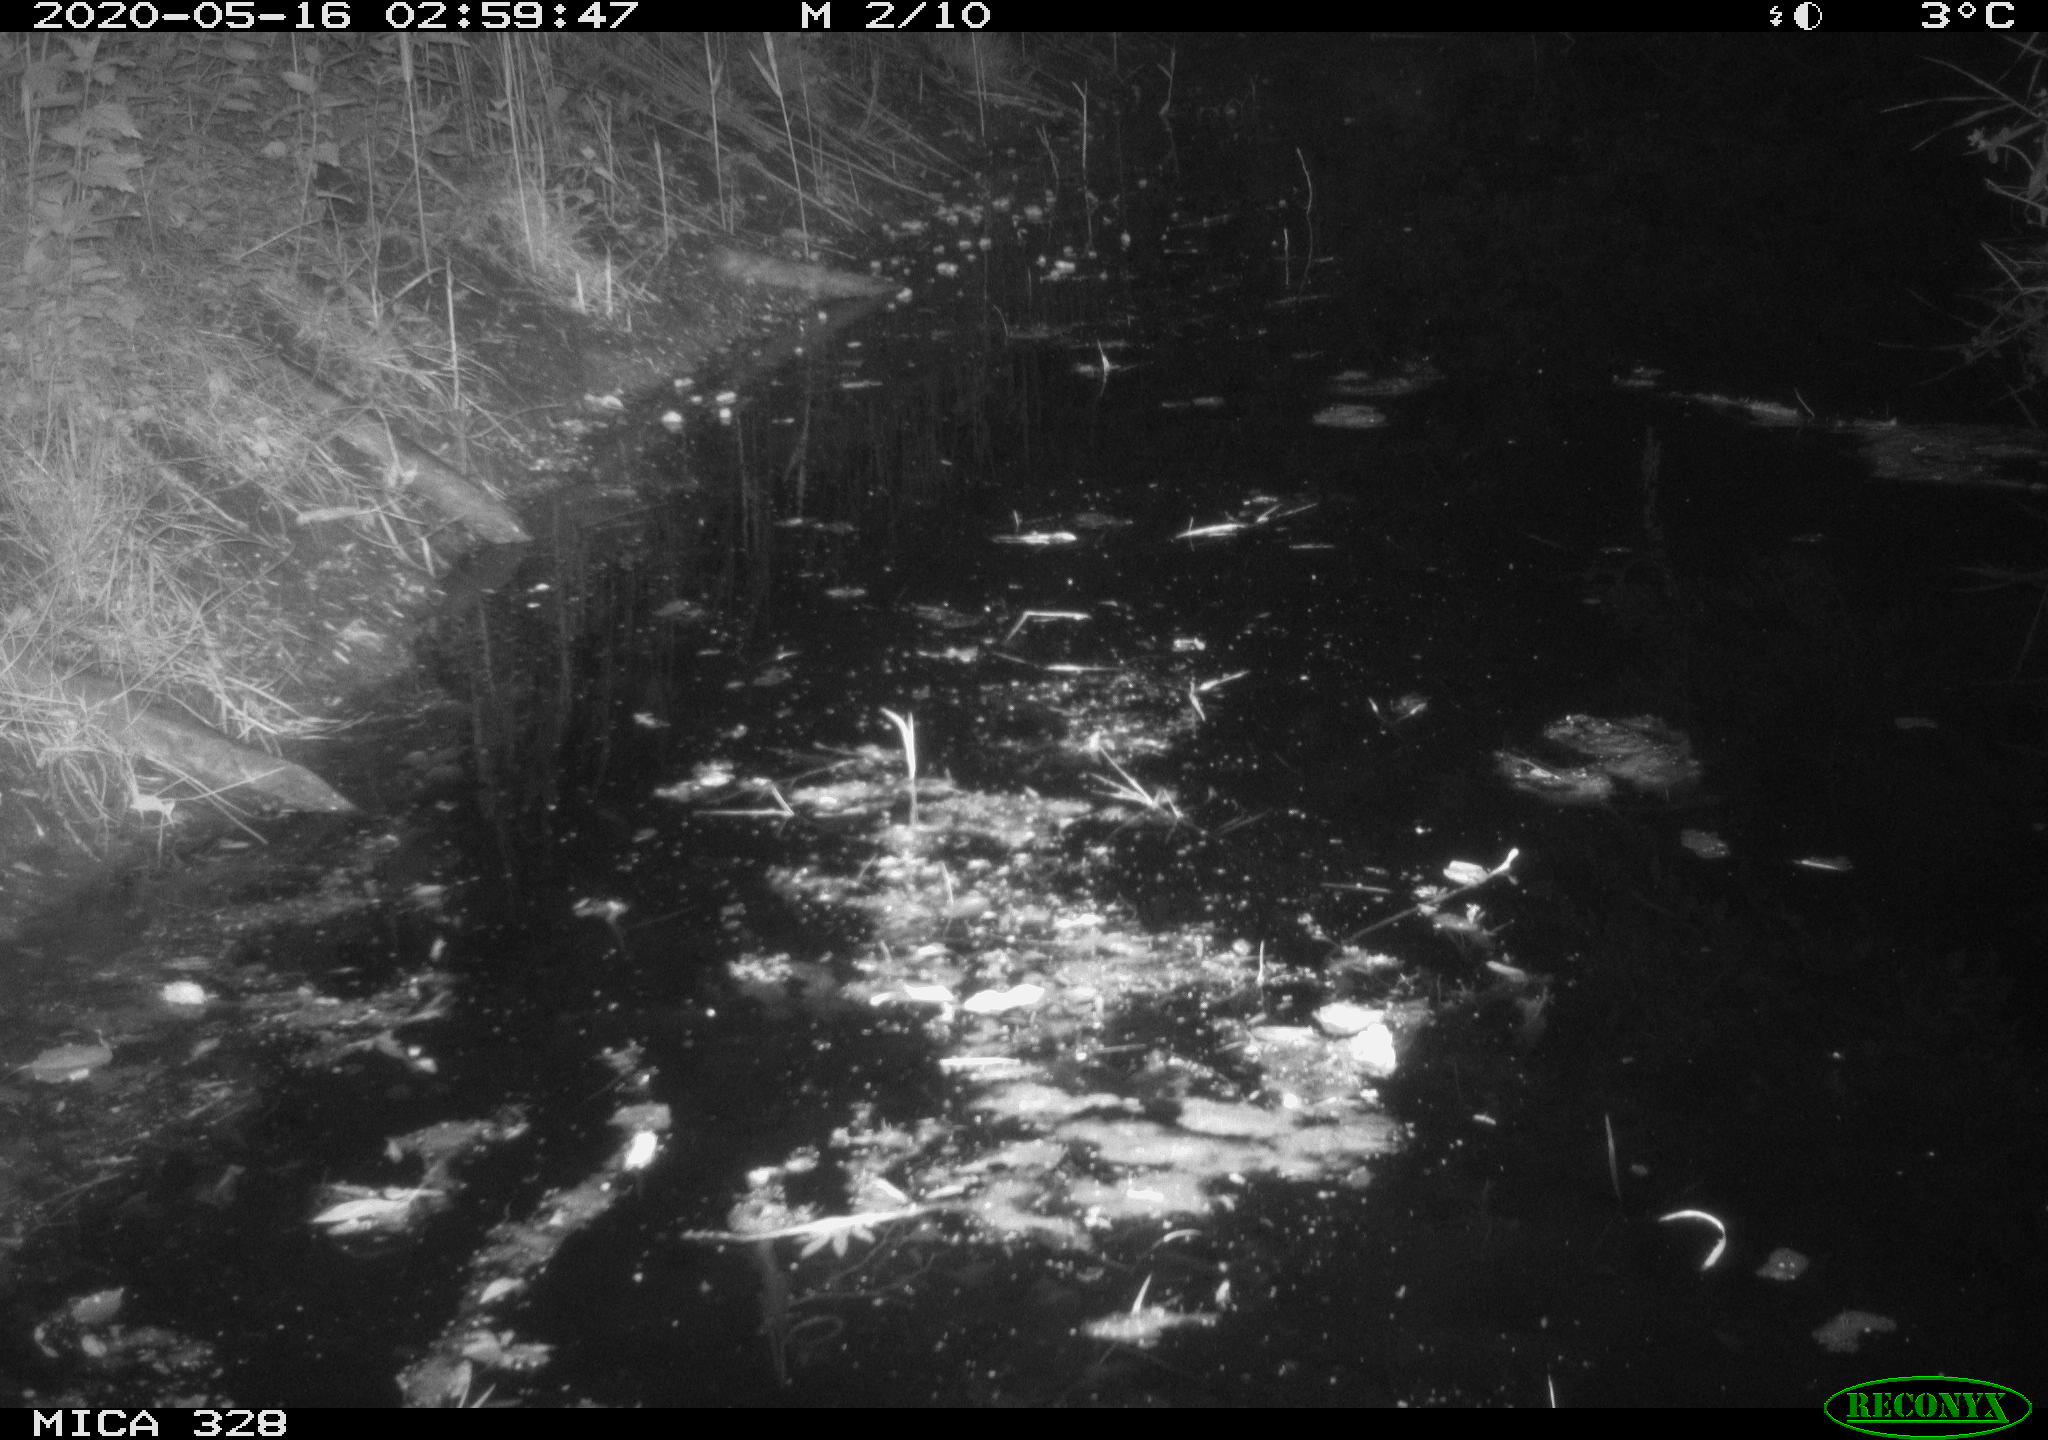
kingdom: Animalia
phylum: Chordata
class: Mammalia
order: Rodentia
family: Muridae
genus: Rattus
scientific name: Rattus norvegicus
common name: Brown rat
